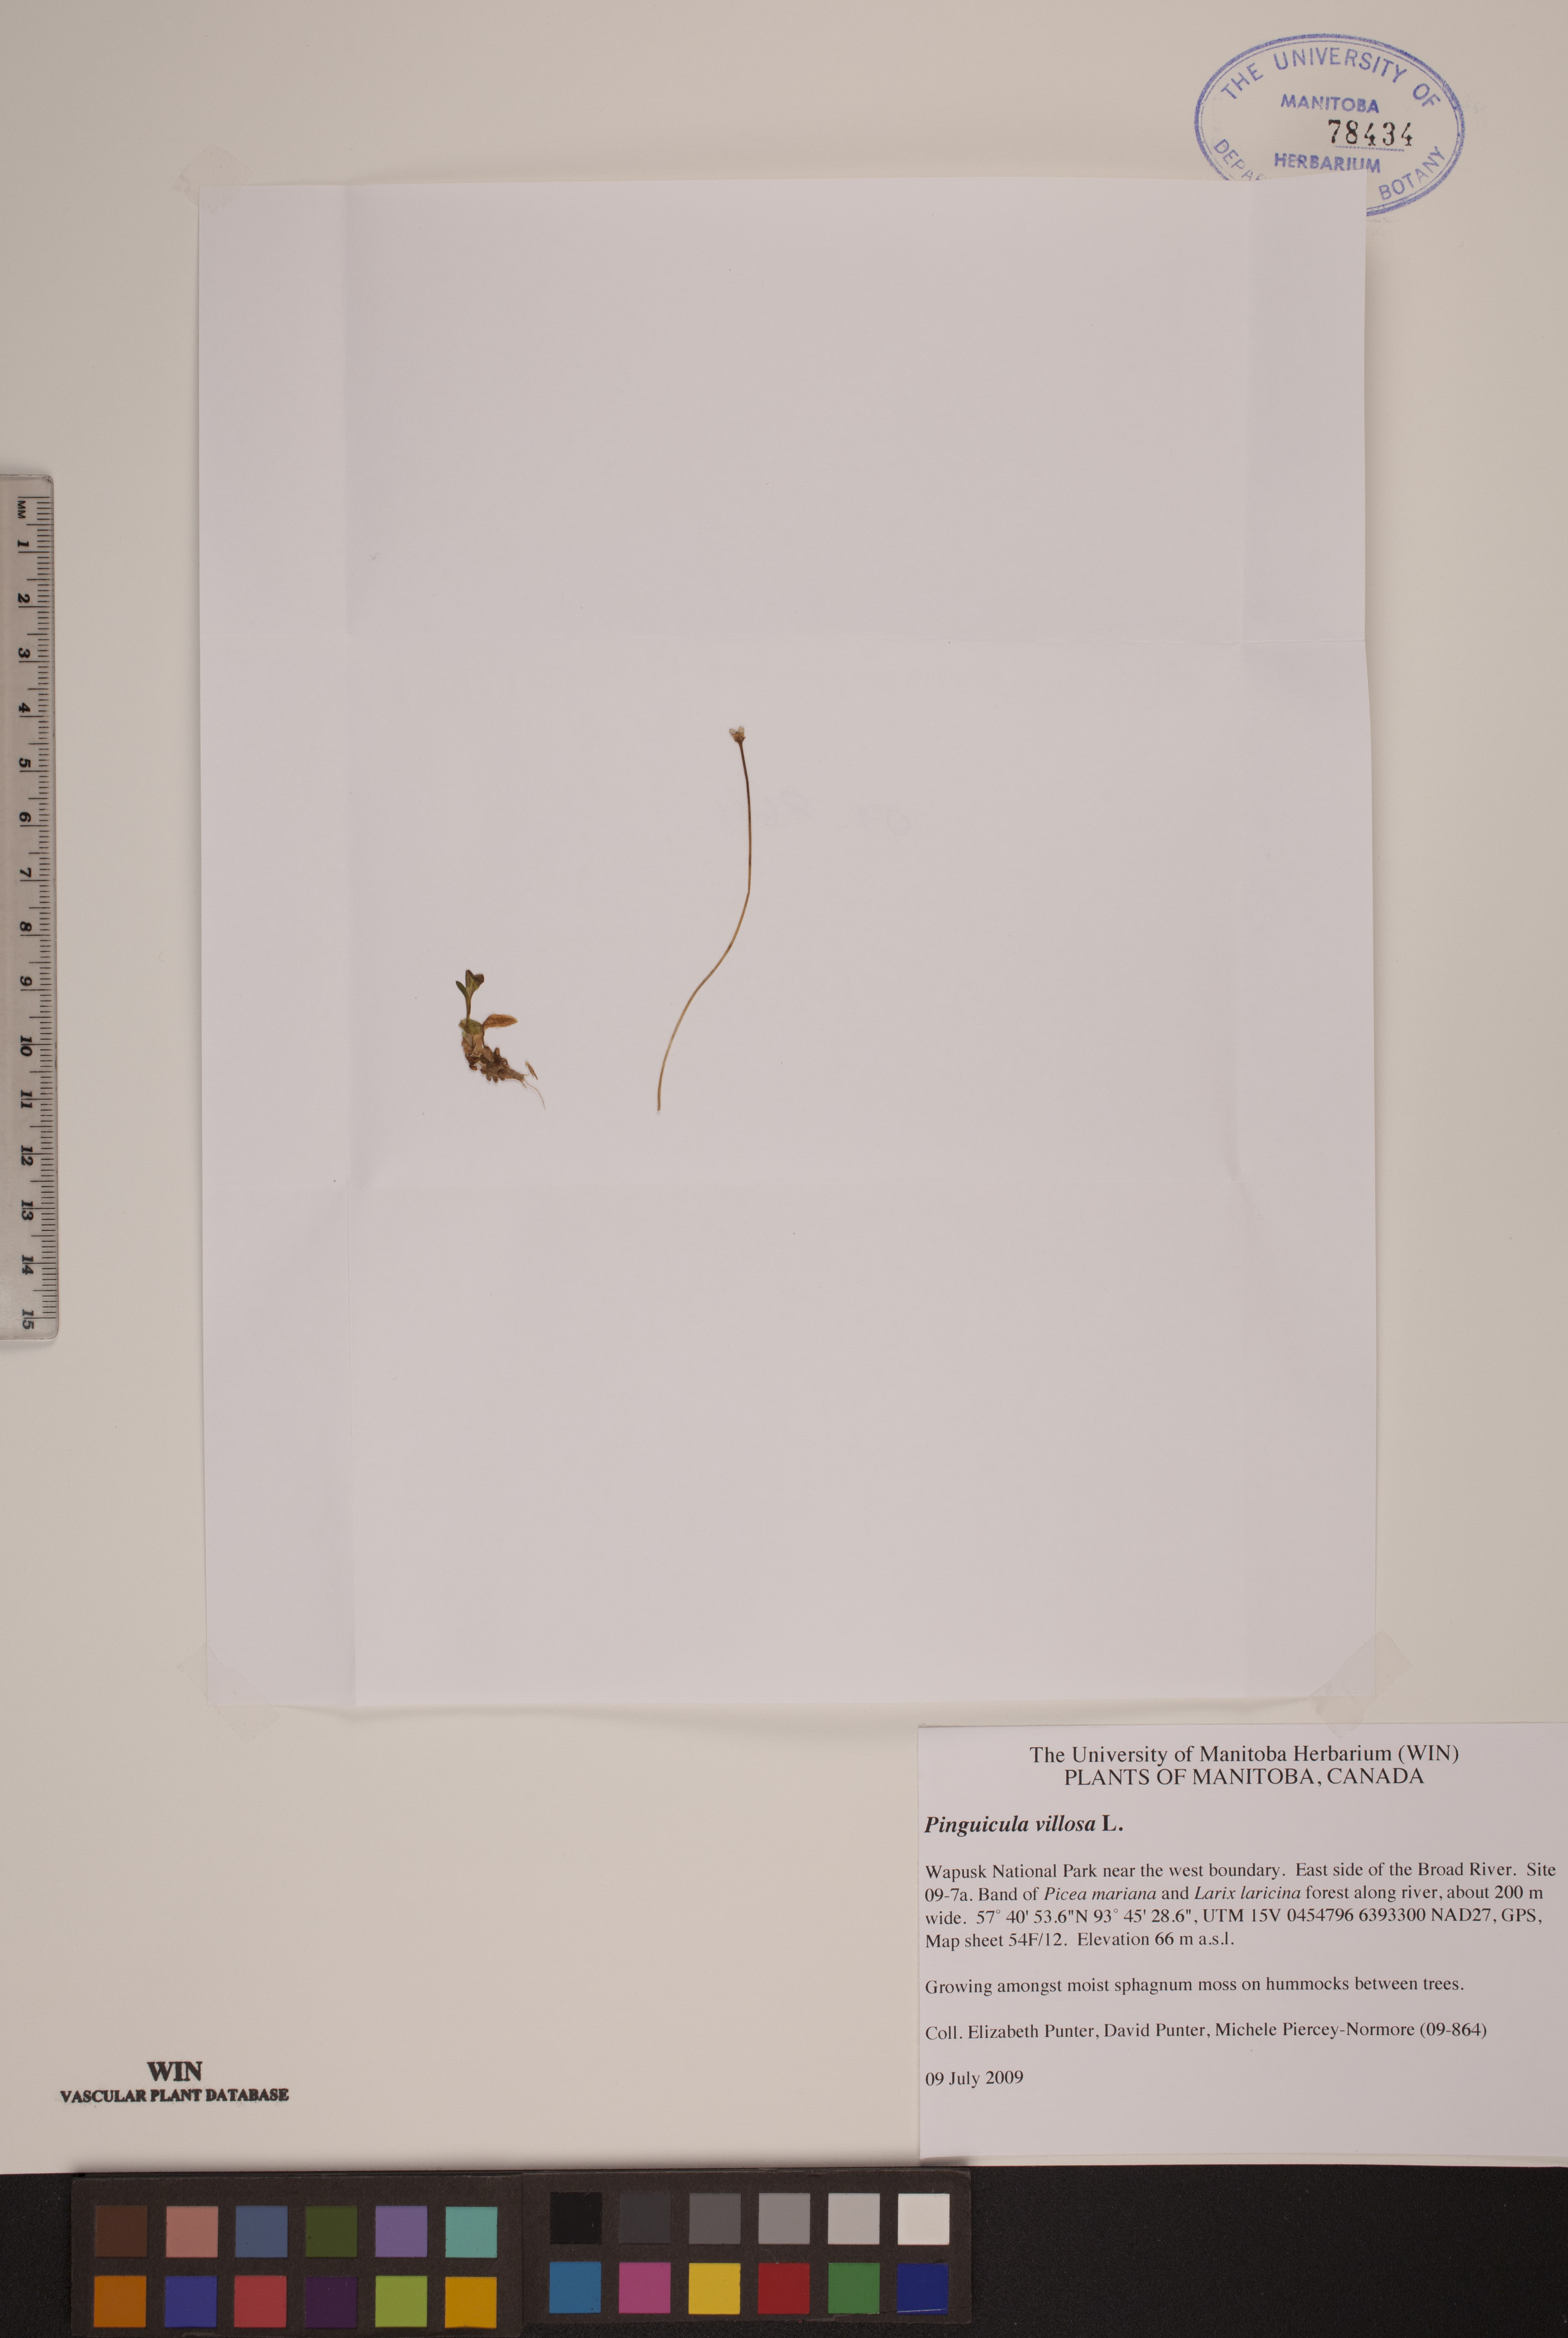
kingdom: Plantae
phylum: Tracheophyta
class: Magnoliopsida
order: Lamiales
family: Lentibulariaceae
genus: Pinguicula
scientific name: Pinguicula villosa
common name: Hairy butterwort
